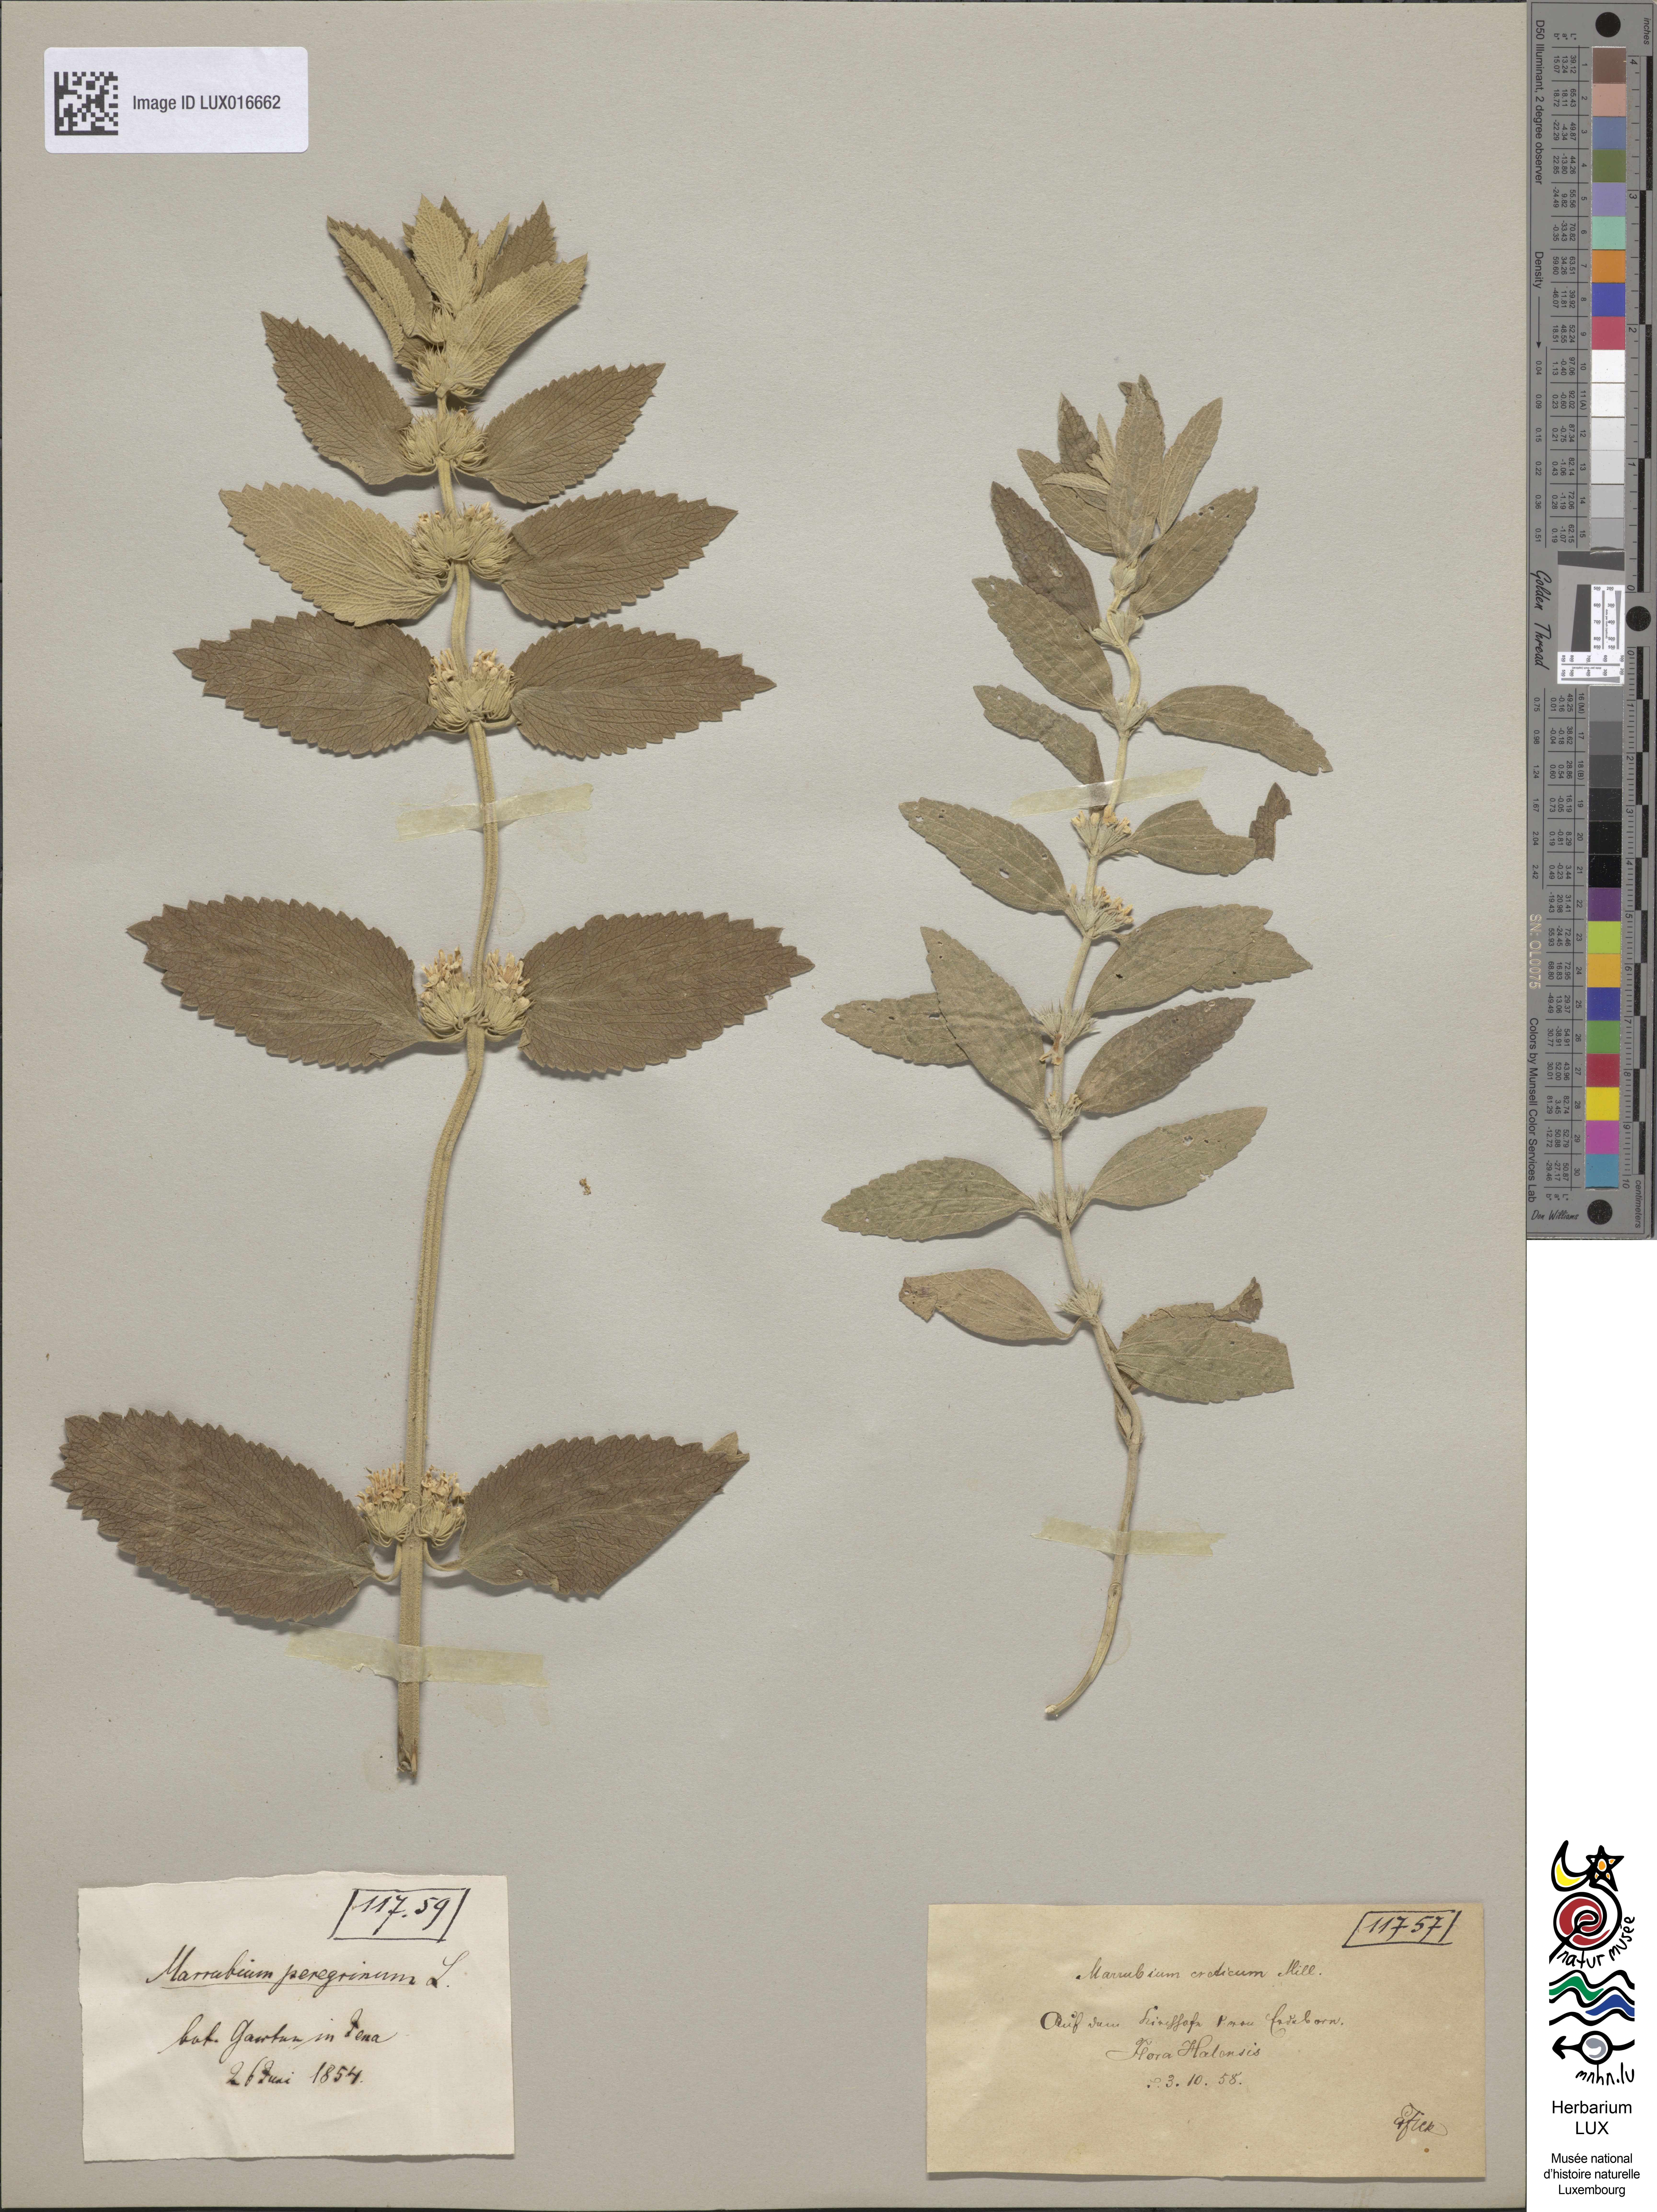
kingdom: Plantae
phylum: Tracheophyta
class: Magnoliopsida
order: Lamiales
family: Lamiaceae
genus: Marrubium
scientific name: Marrubium peregrinum
